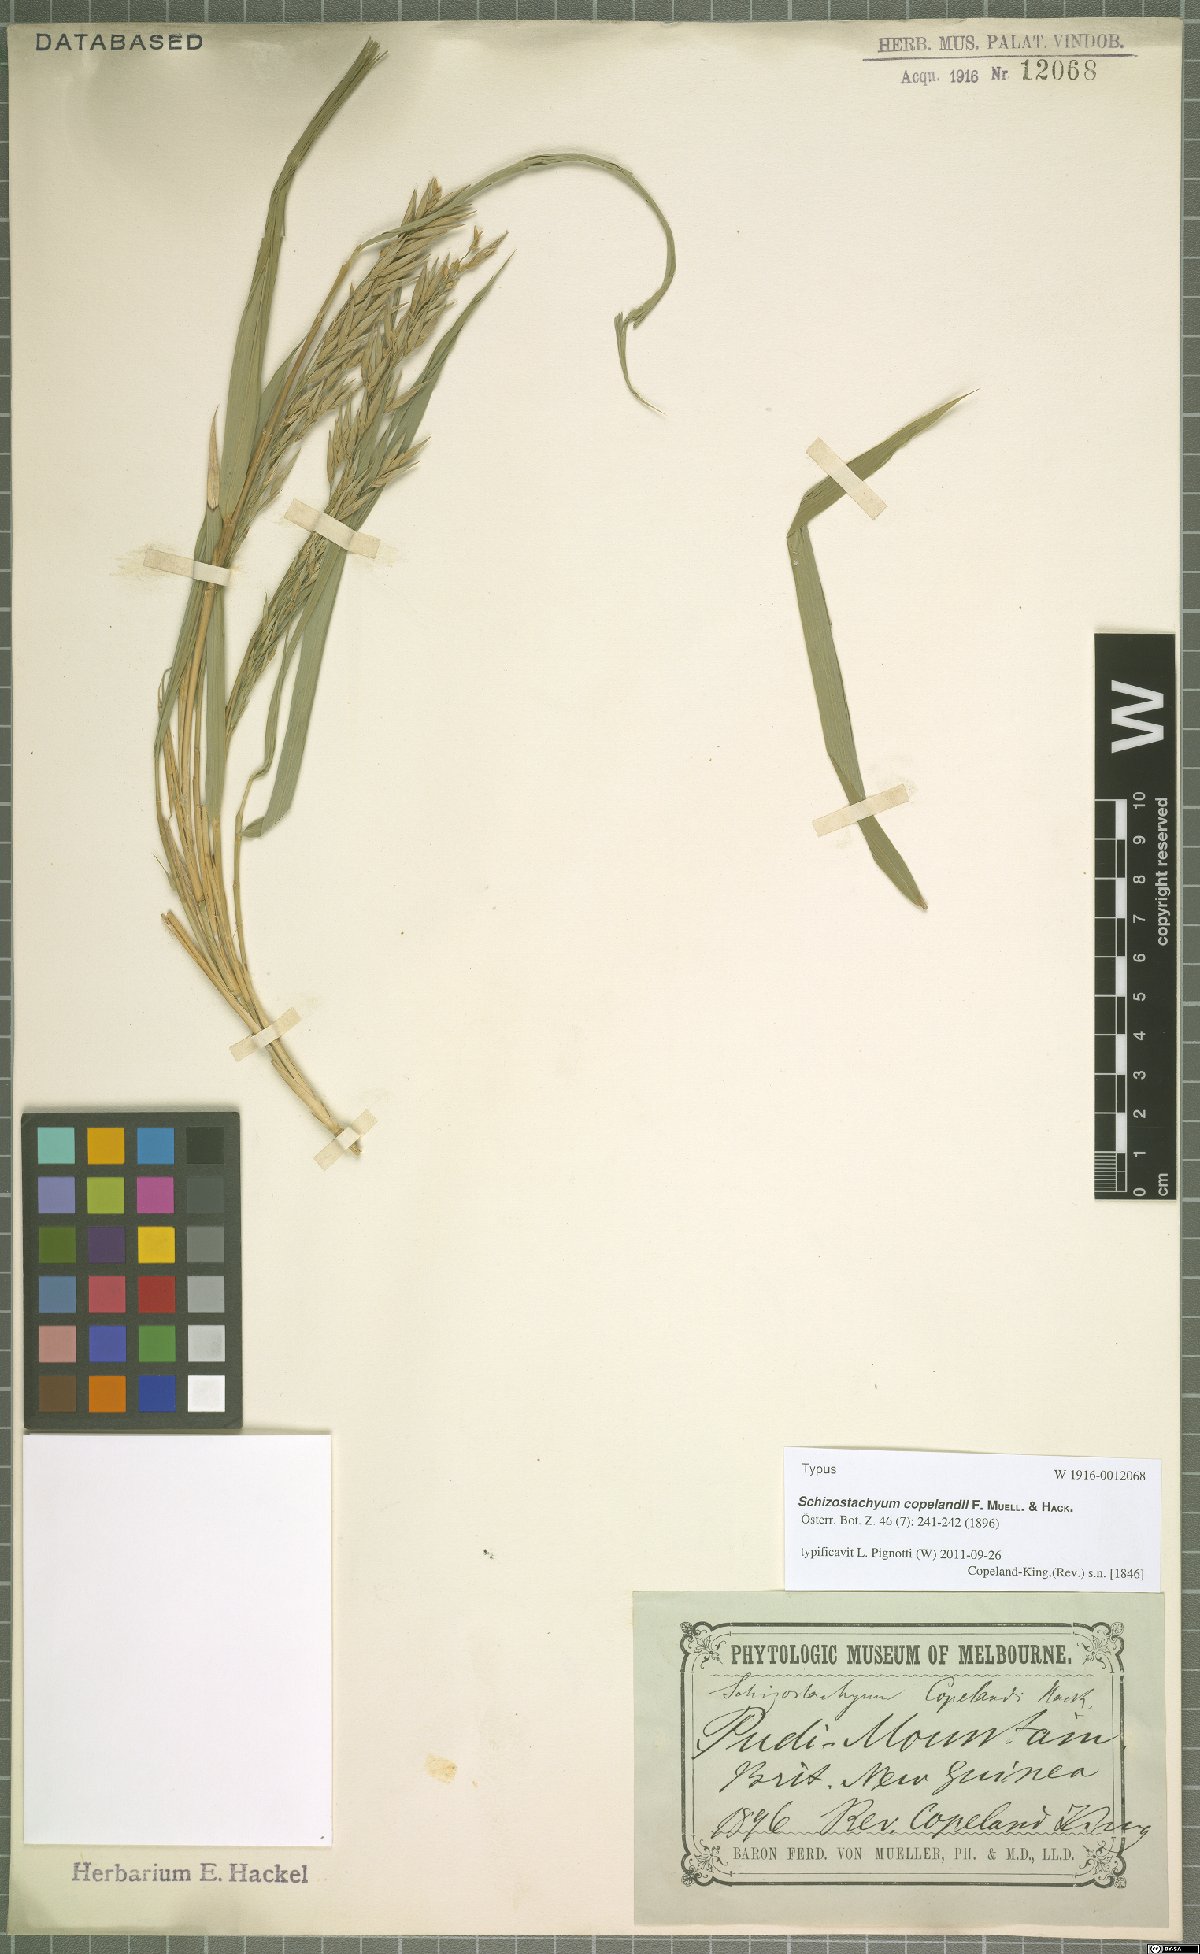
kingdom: Plantae
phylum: Tracheophyta
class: Liliopsida
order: Poales
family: Poaceae
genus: Schizostachyum
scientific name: Schizostachyum copelandii
